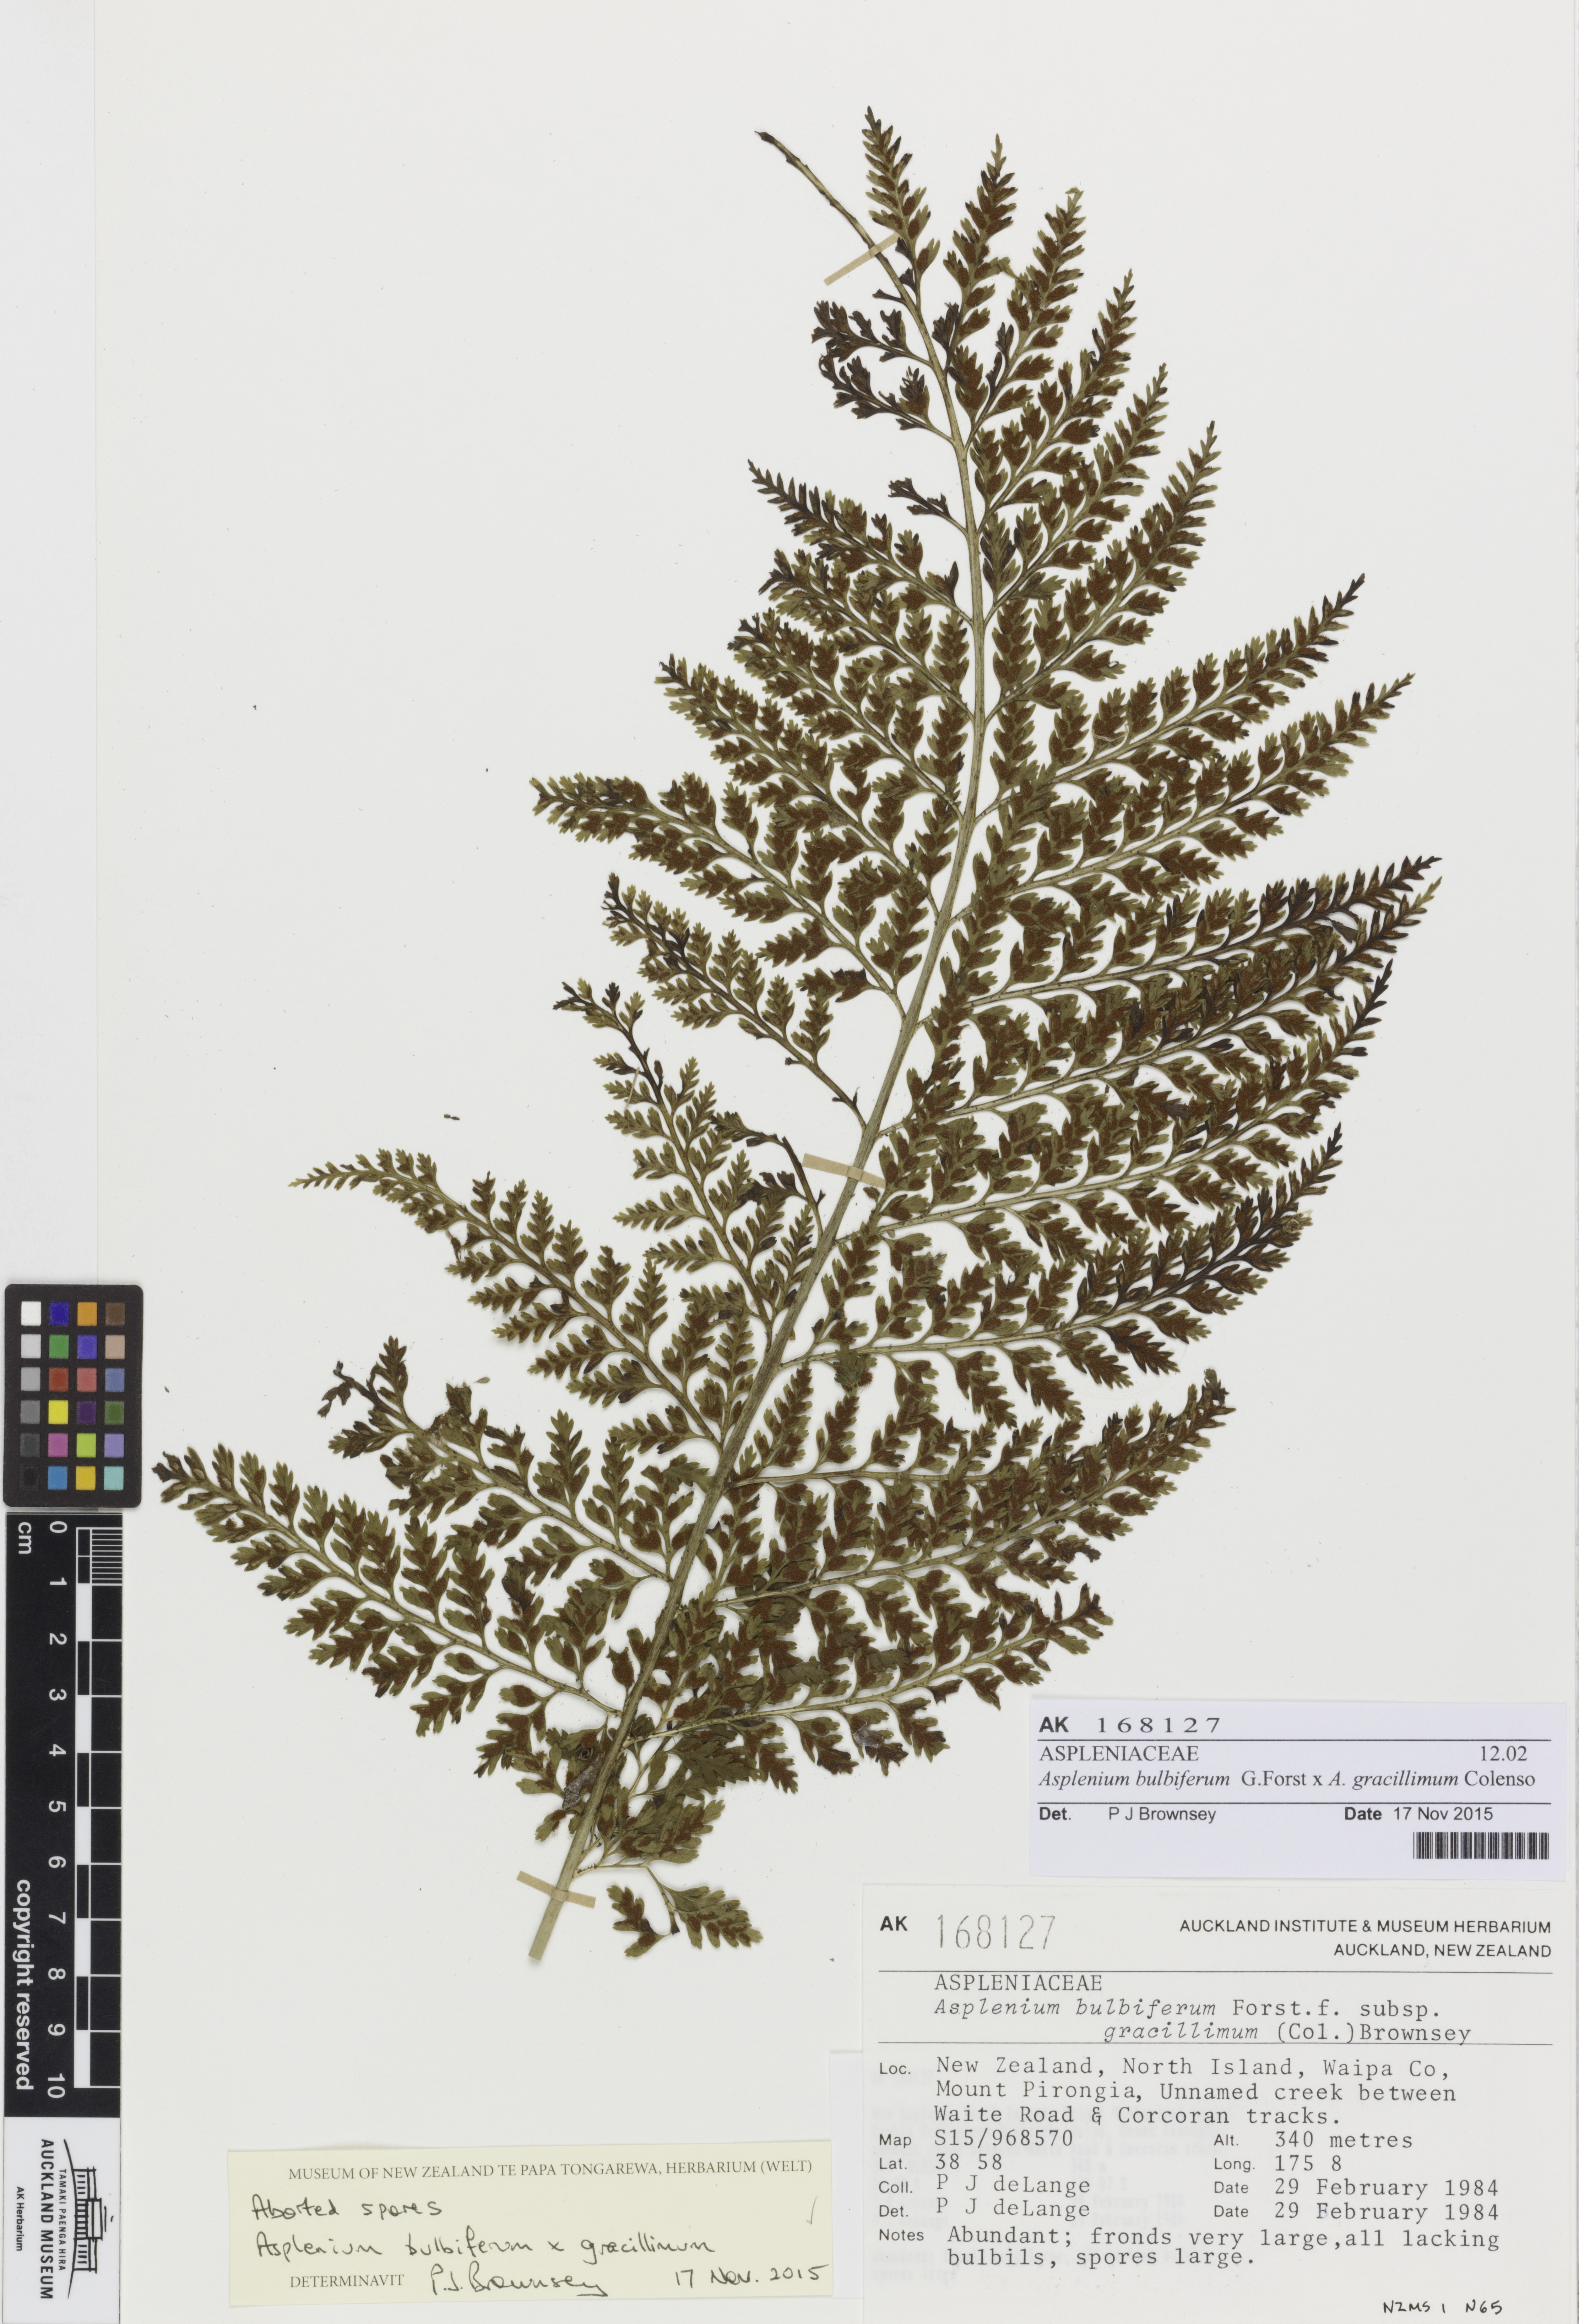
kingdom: Plantae
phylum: Tracheophyta
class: Polypodiopsida
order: Polypodiales
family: Aspleniaceae
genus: Asplenium
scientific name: Asplenium
